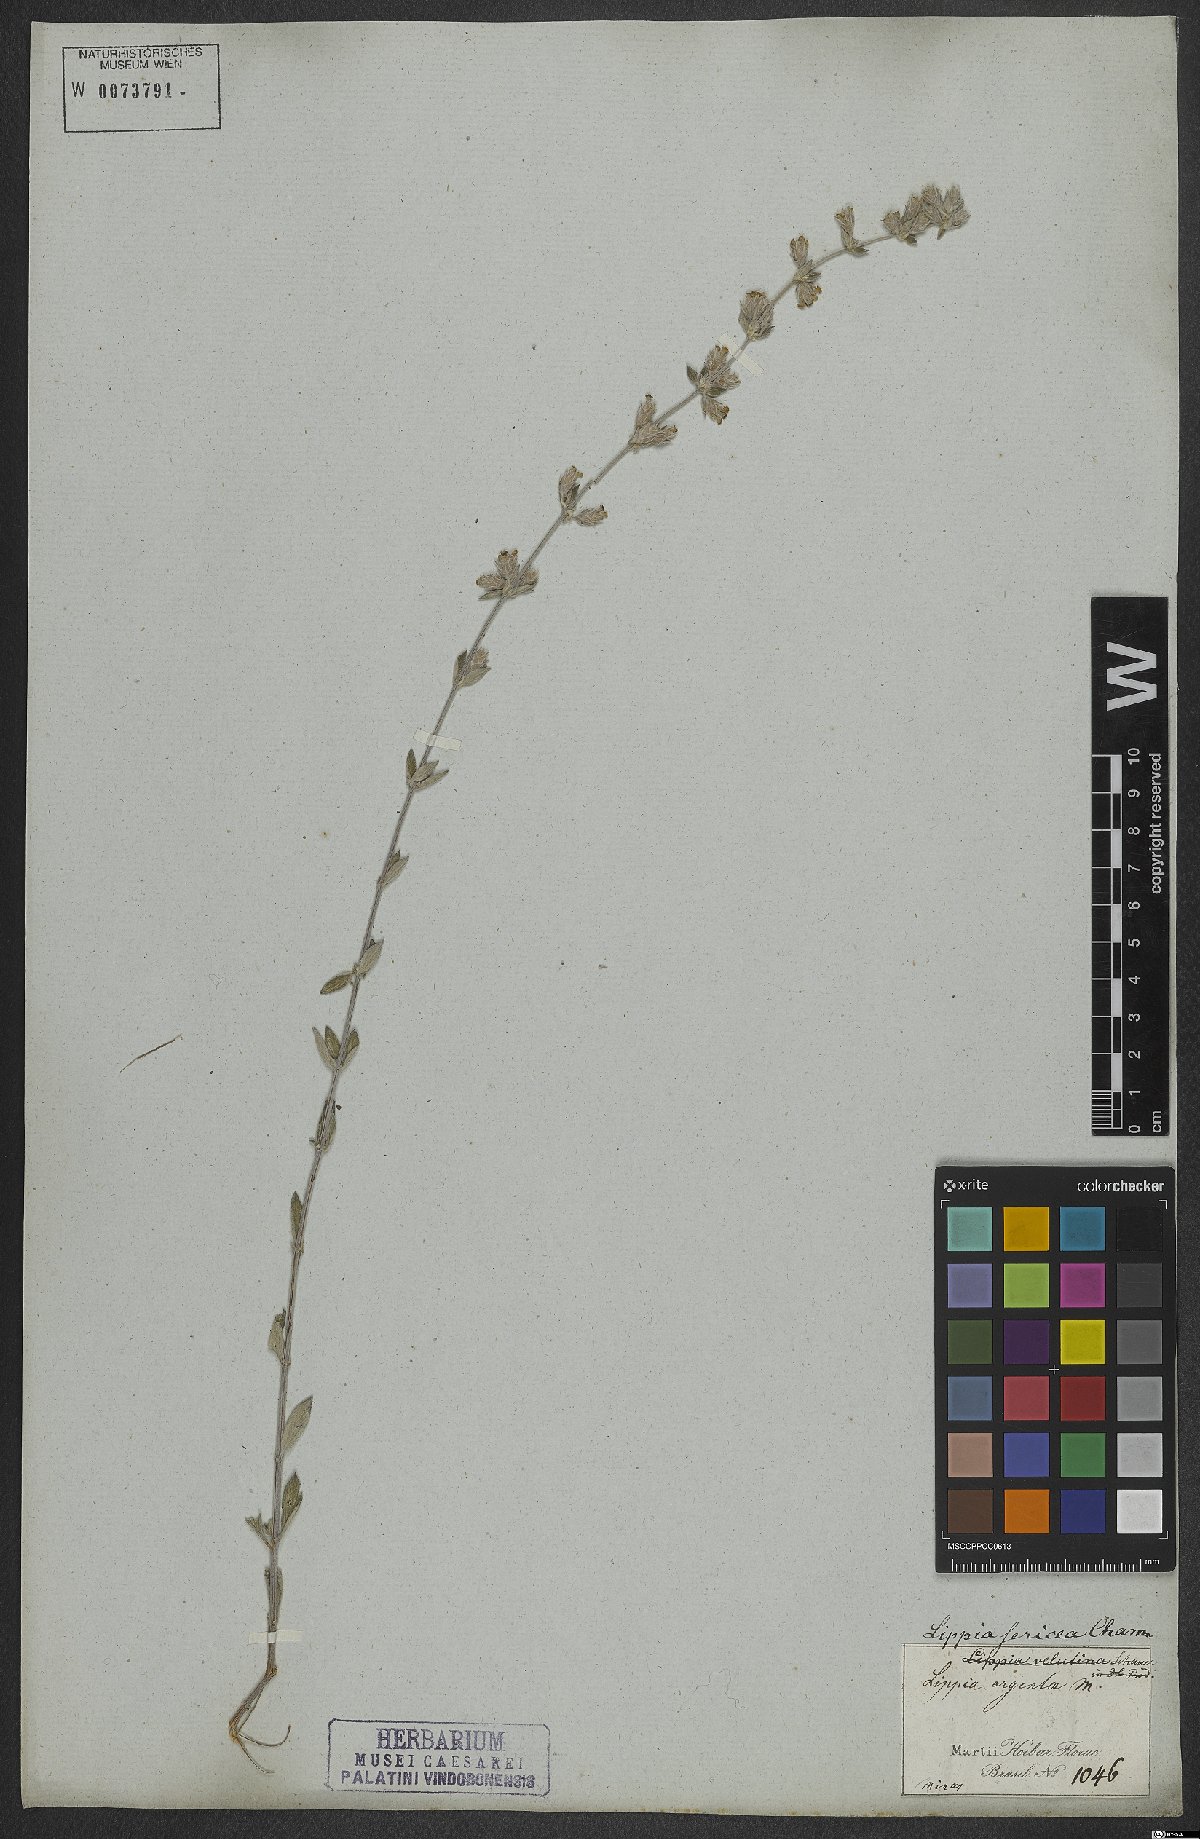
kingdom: Plantae
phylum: Tracheophyta
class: Magnoliopsida
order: Lamiales
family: Verbenaceae
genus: Lippia
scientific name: Lippia sericea
